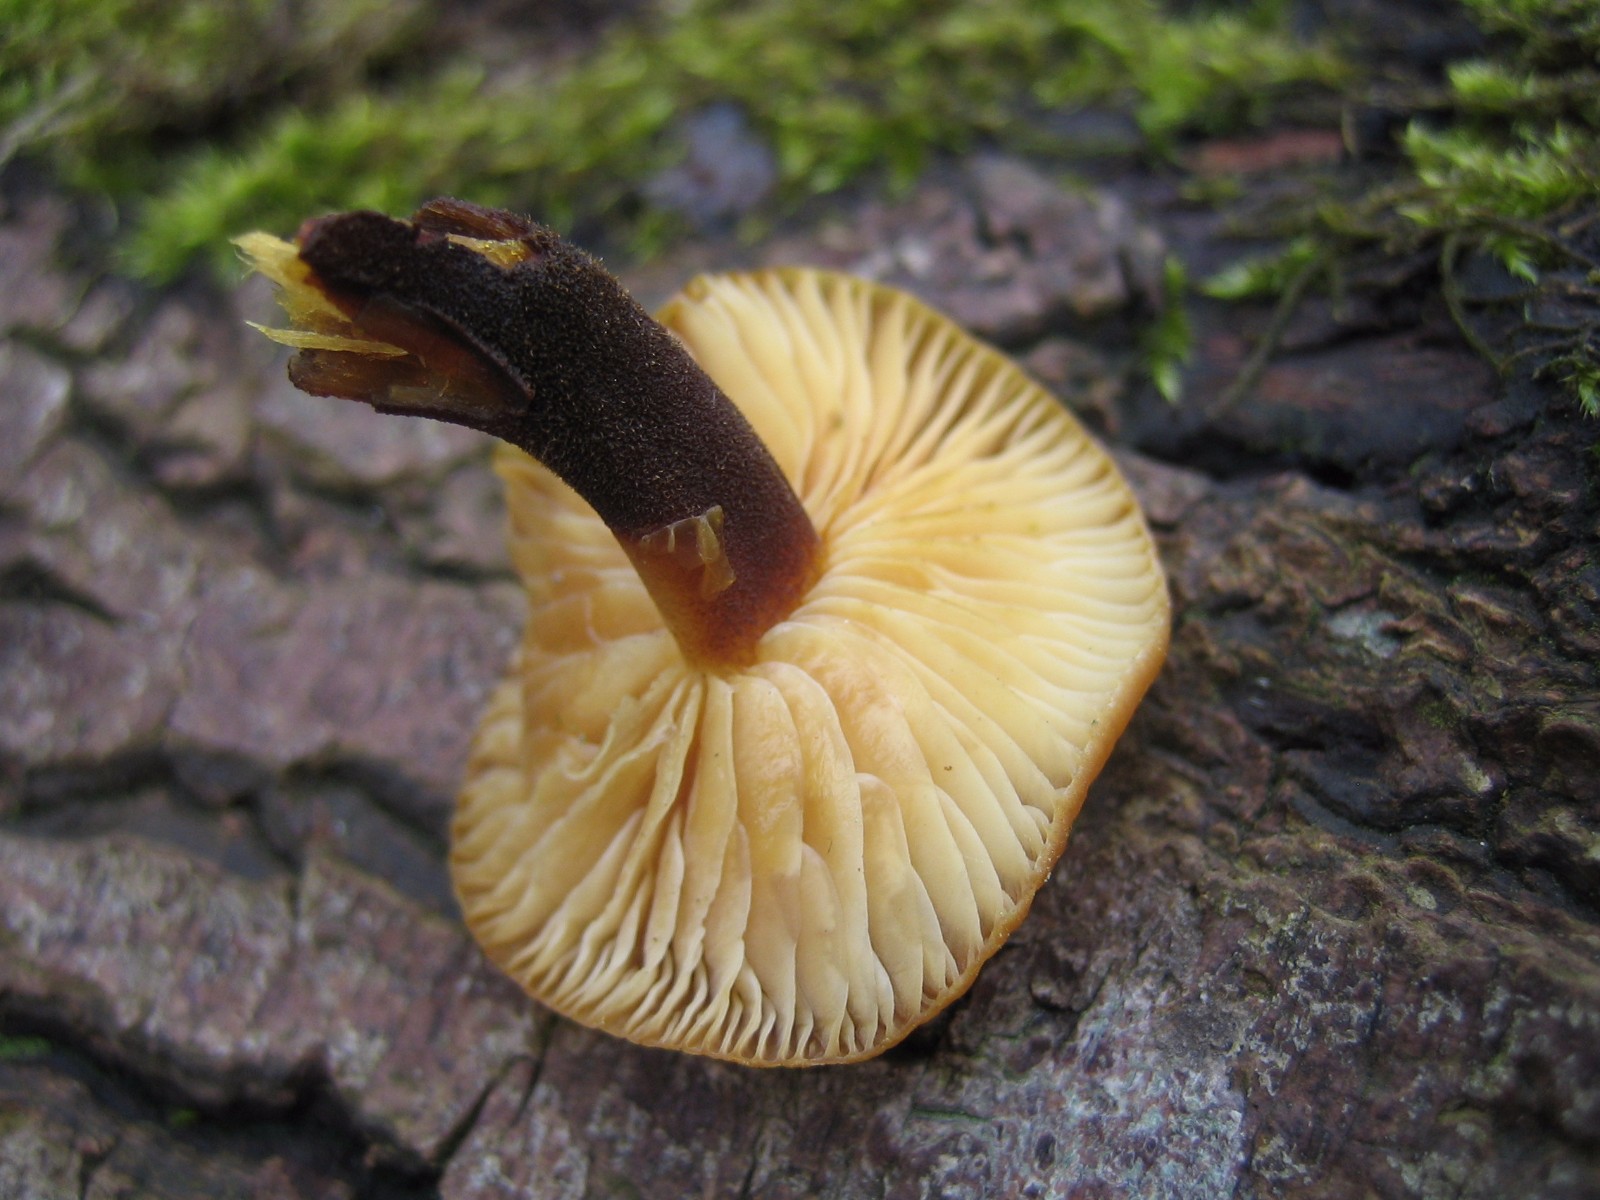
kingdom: Fungi
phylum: Basidiomycota
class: Agaricomycetes
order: Agaricales
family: Physalacriaceae
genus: Flammulina
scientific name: Flammulina velutipes
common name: gul fløjlsfod
